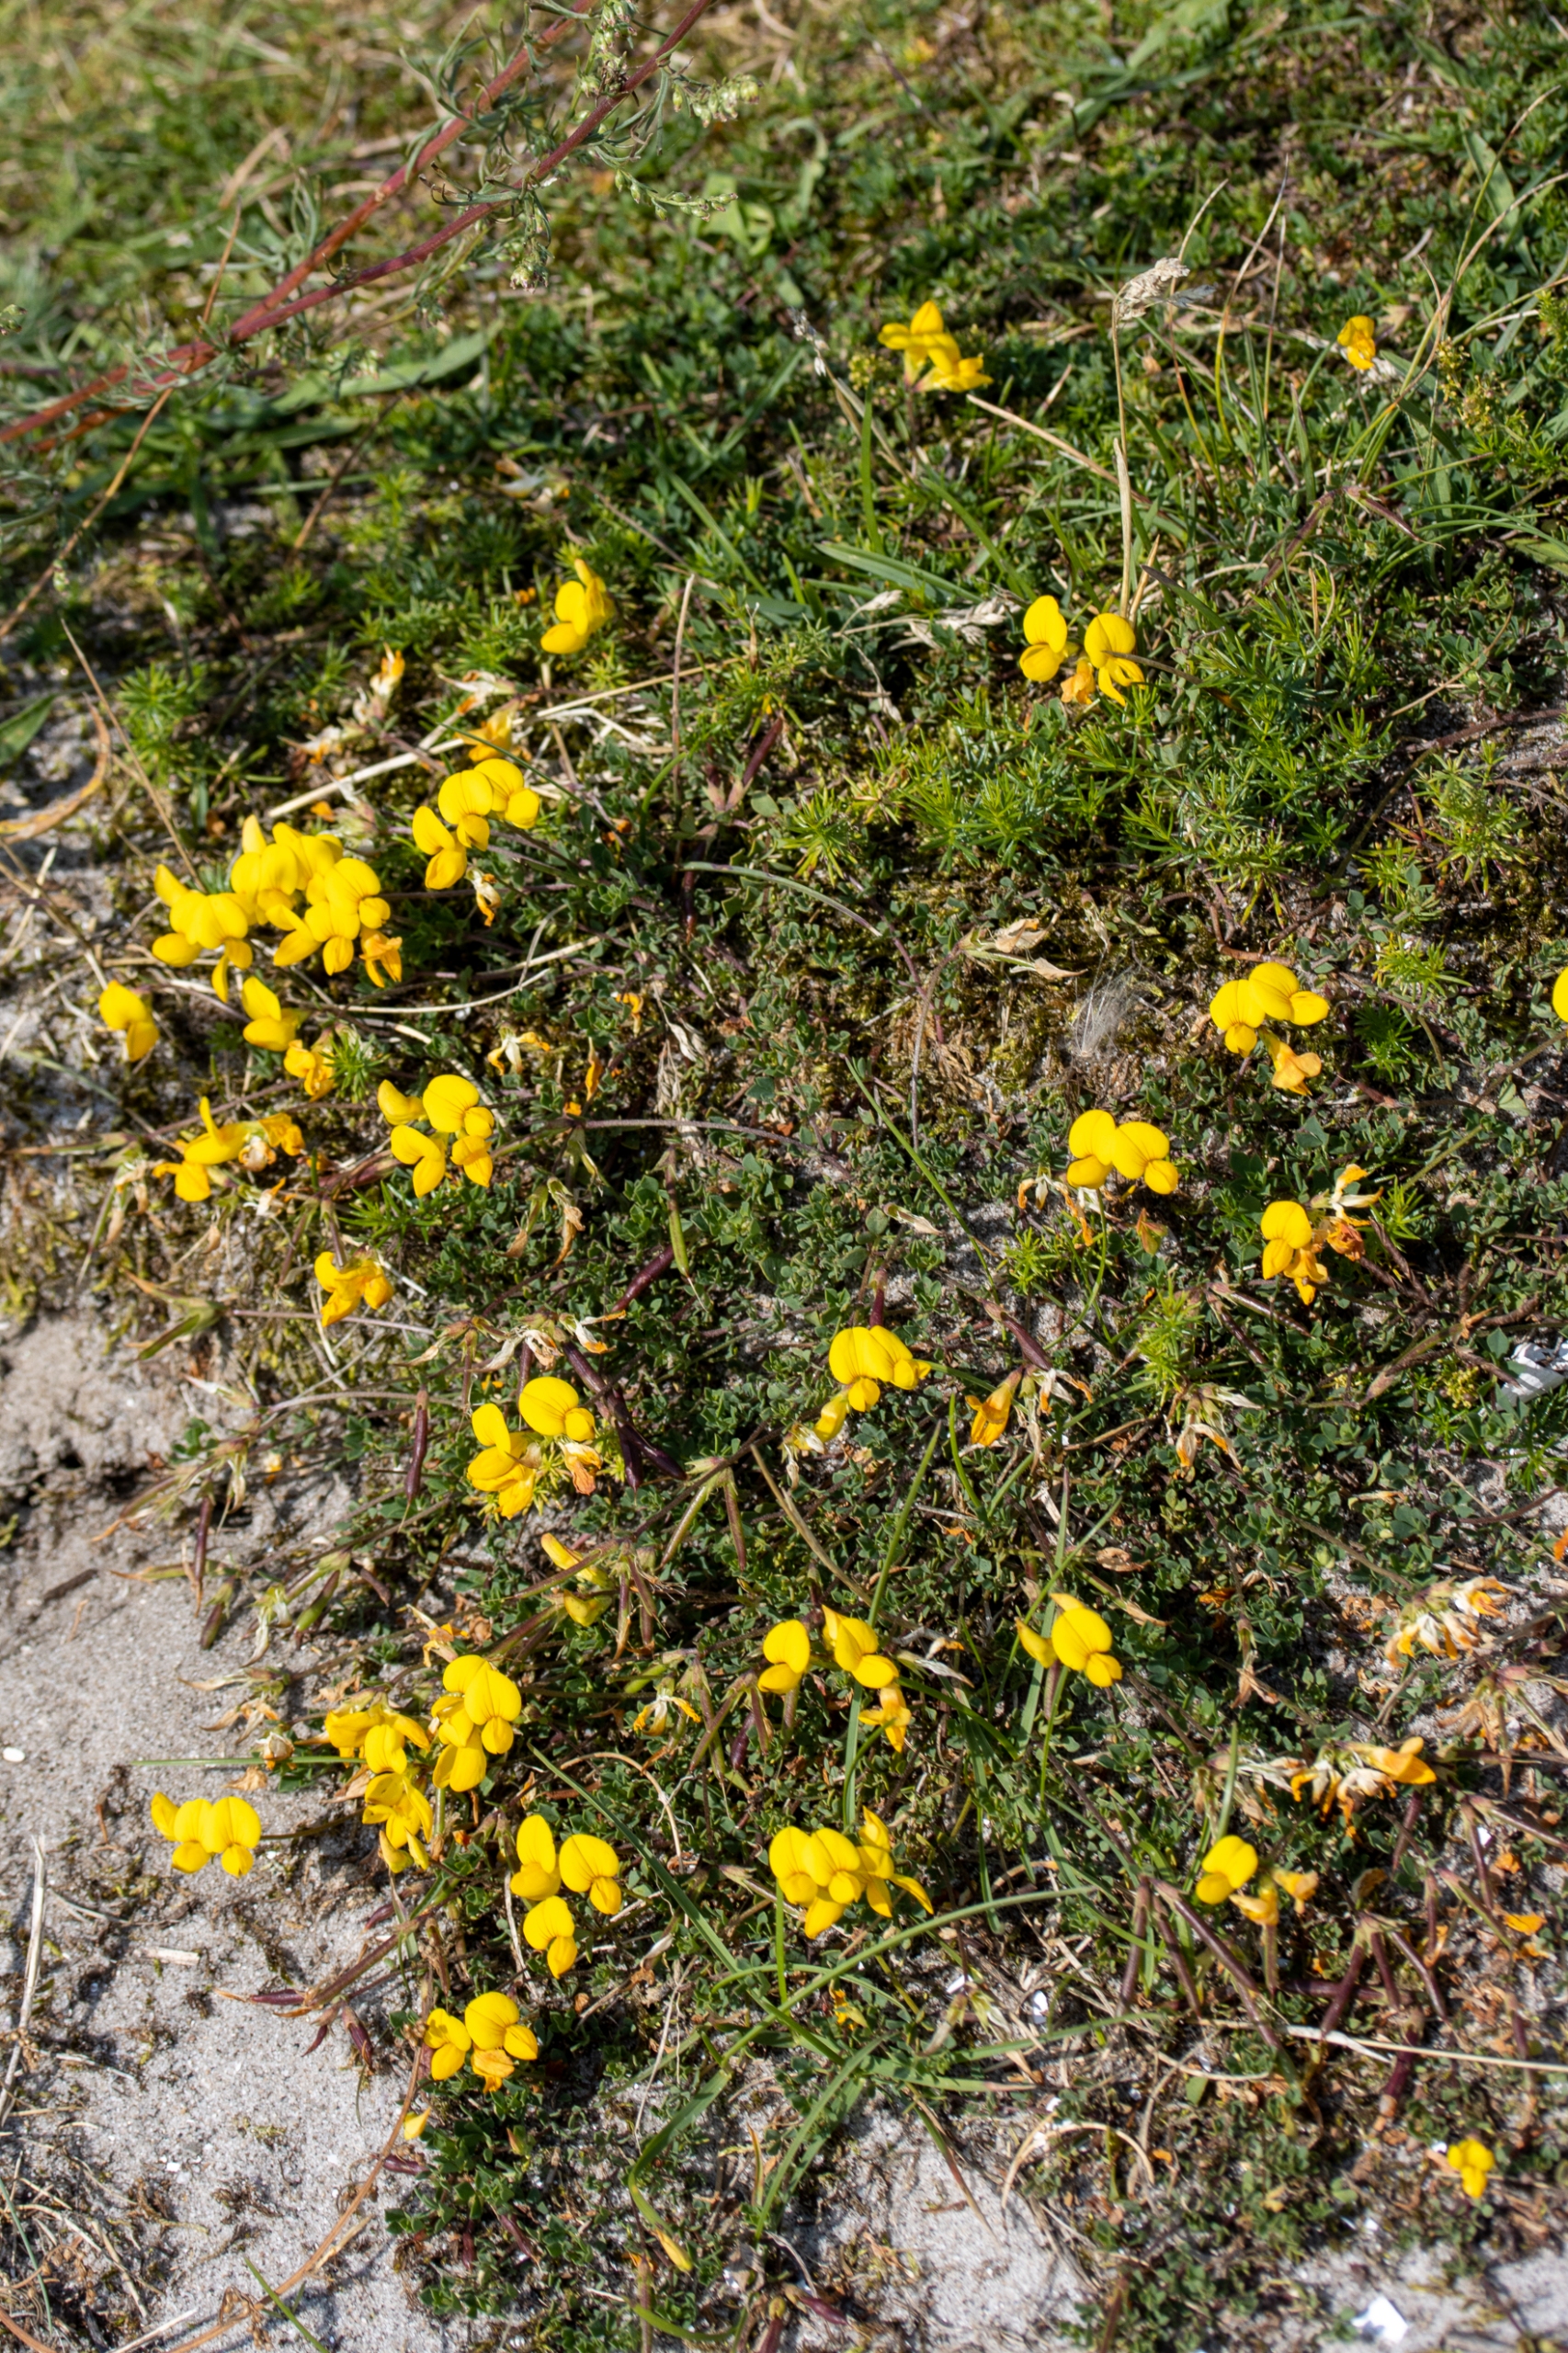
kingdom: Plantae
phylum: Tracheophyta
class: Magnoliopsida
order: Fabales
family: Fabaceae
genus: Lotus
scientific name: Lotus corniculatus
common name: Almindelig kællingetand
